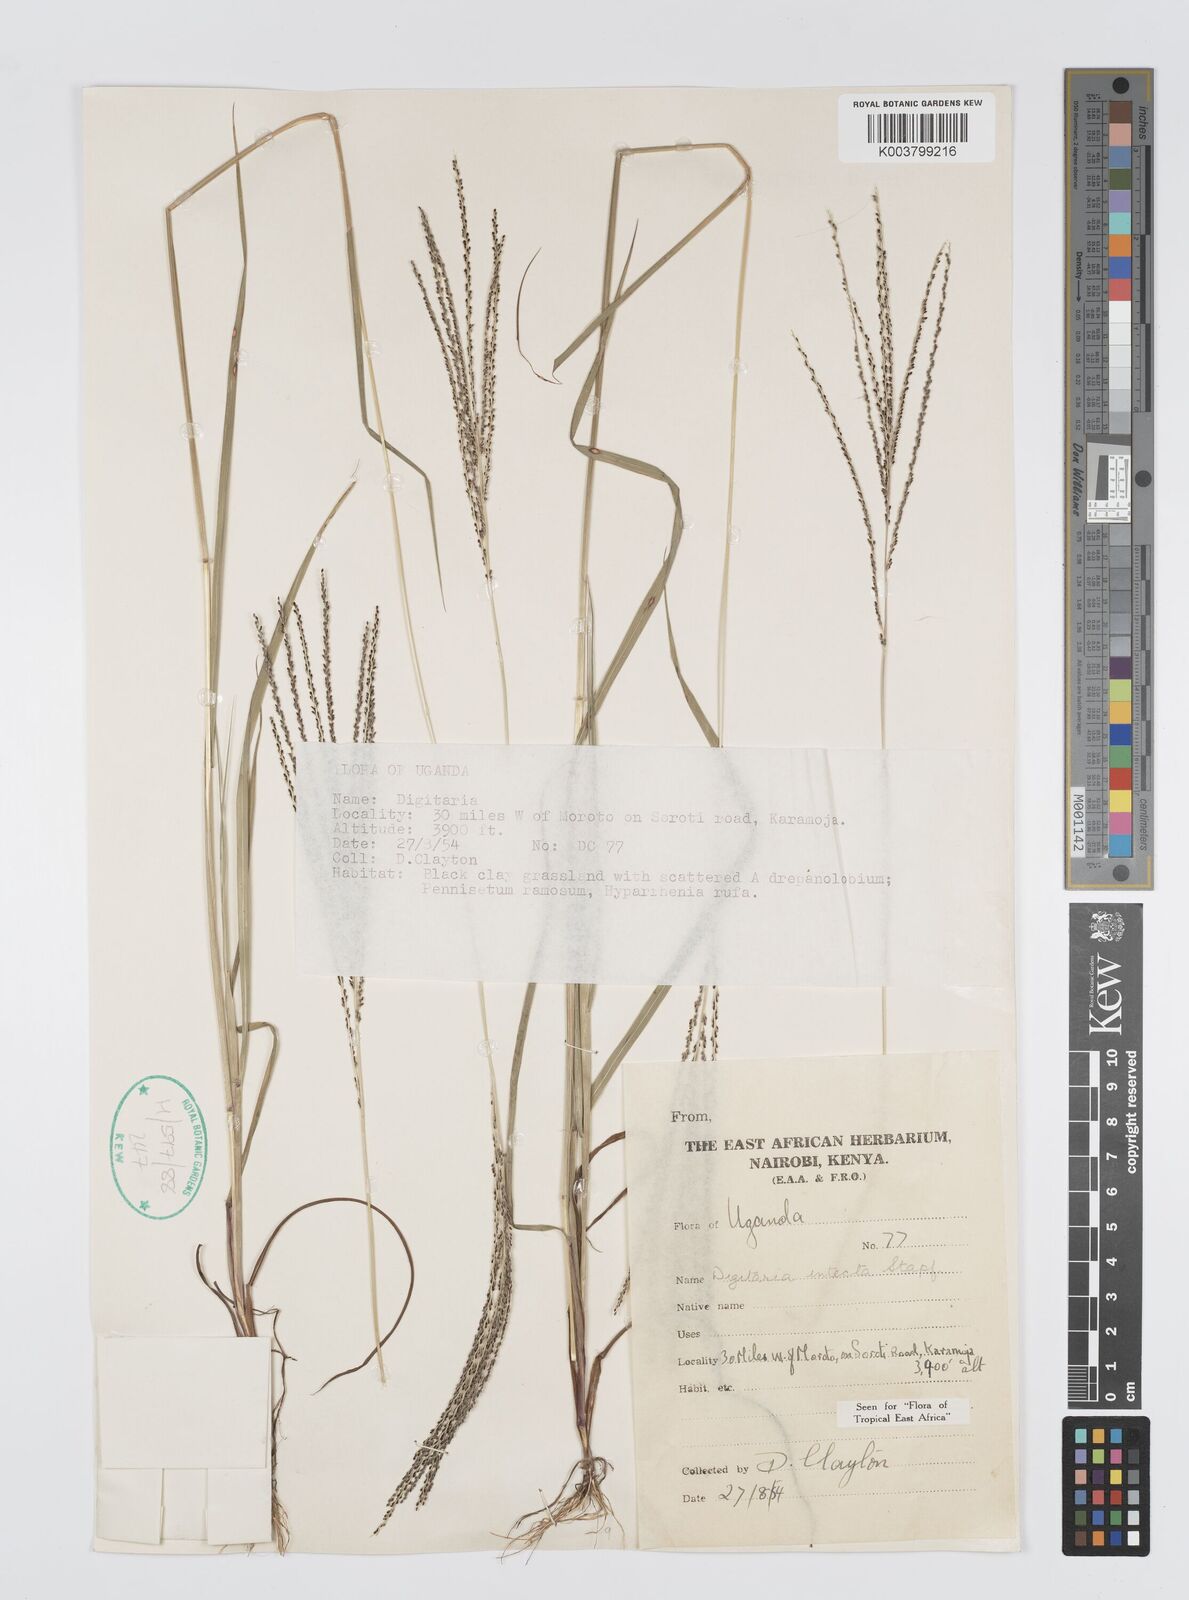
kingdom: Plantae
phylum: Tracheophyta
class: Liliopsida
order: Poales
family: Poaceae
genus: Digitaria
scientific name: Digitaria intecta
